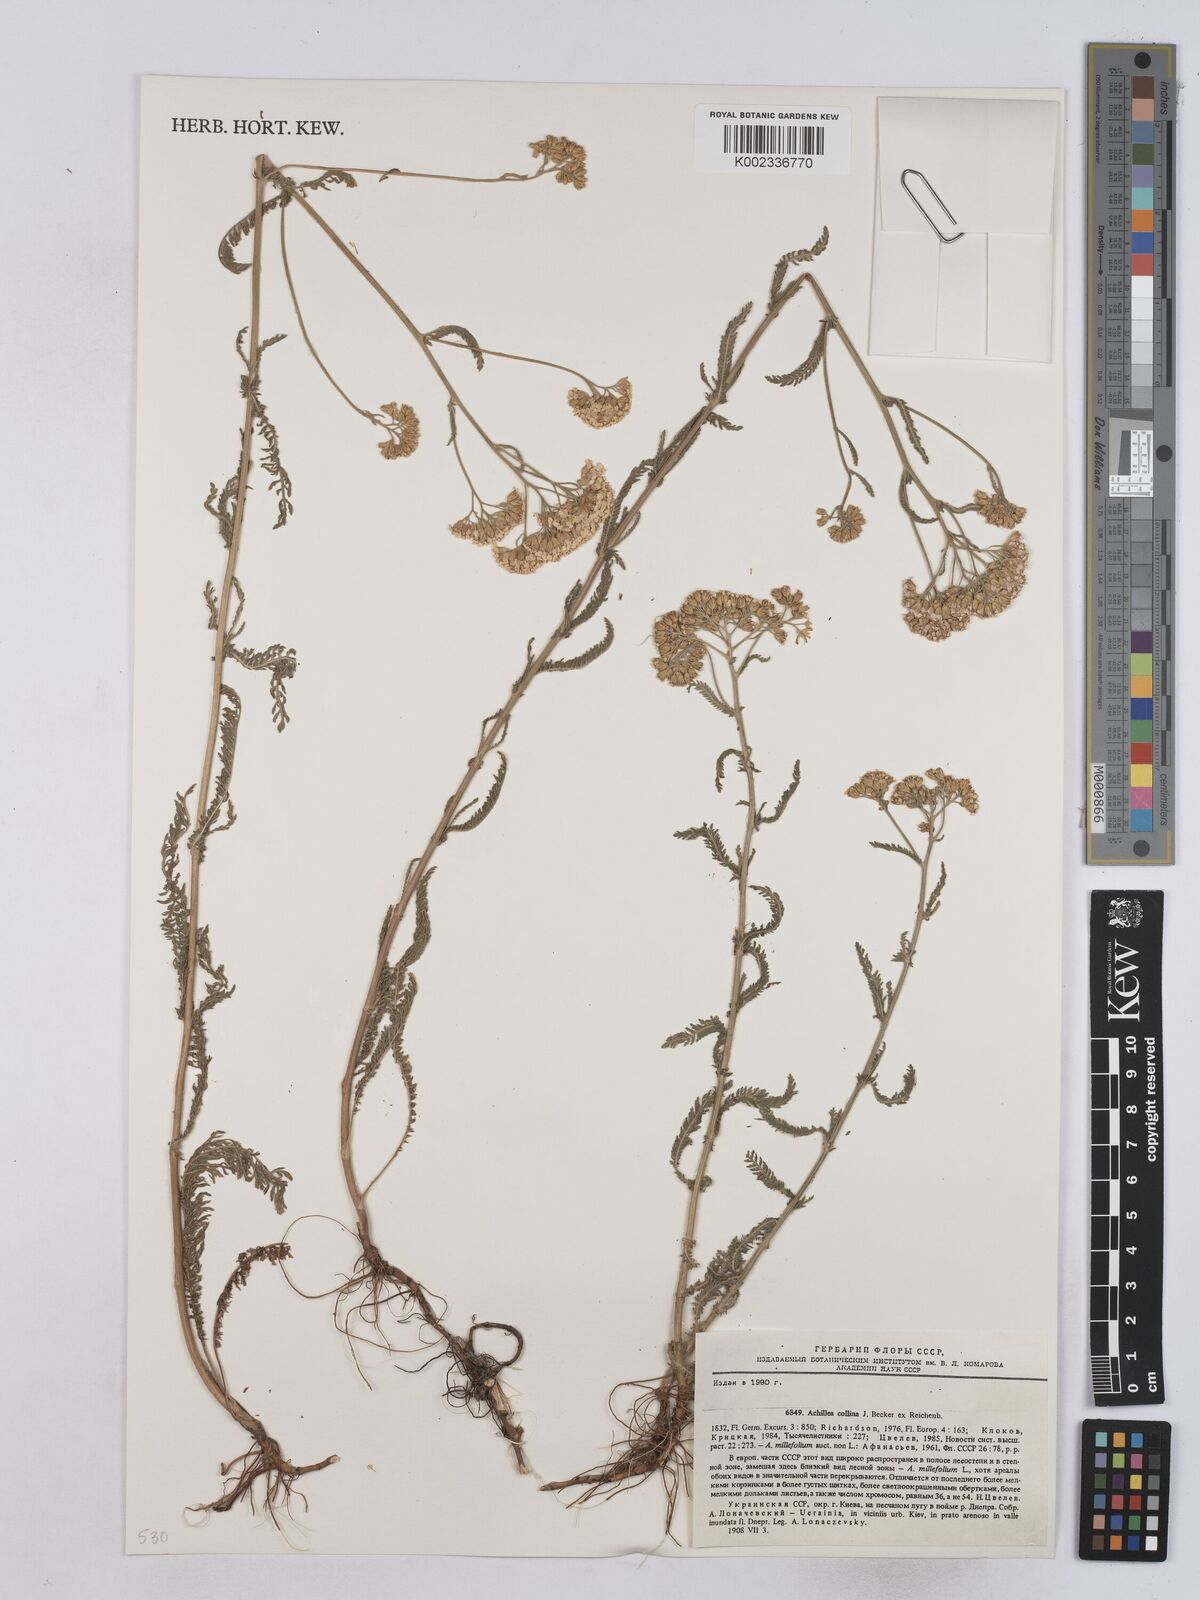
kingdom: Plantae
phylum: Tracheophyta
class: Magnoliopsida
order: Asterales
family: Asteraceae
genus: Achillea
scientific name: Achillea collina
